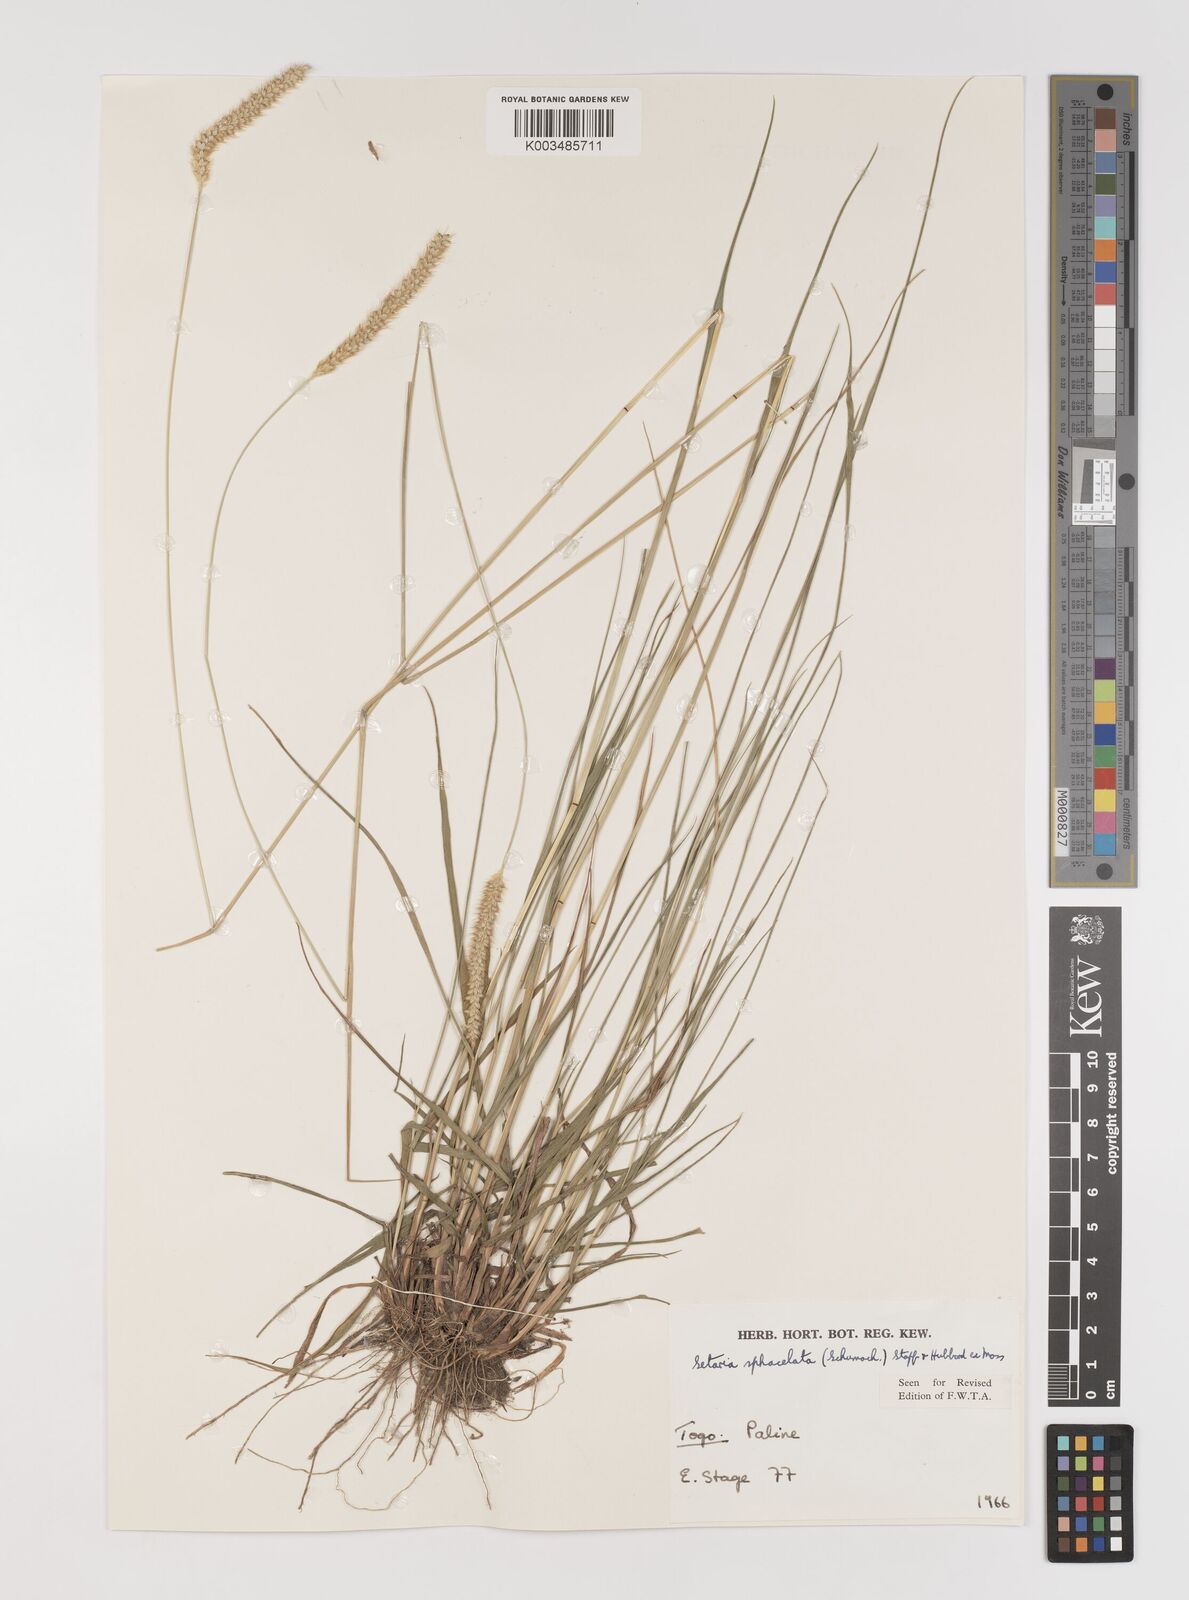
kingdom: Plantae
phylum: Tracheophyta
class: Liliopsida
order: Poales
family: Poaceae
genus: Setaria
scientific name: Setaria sphacelata
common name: African bristlegrass
